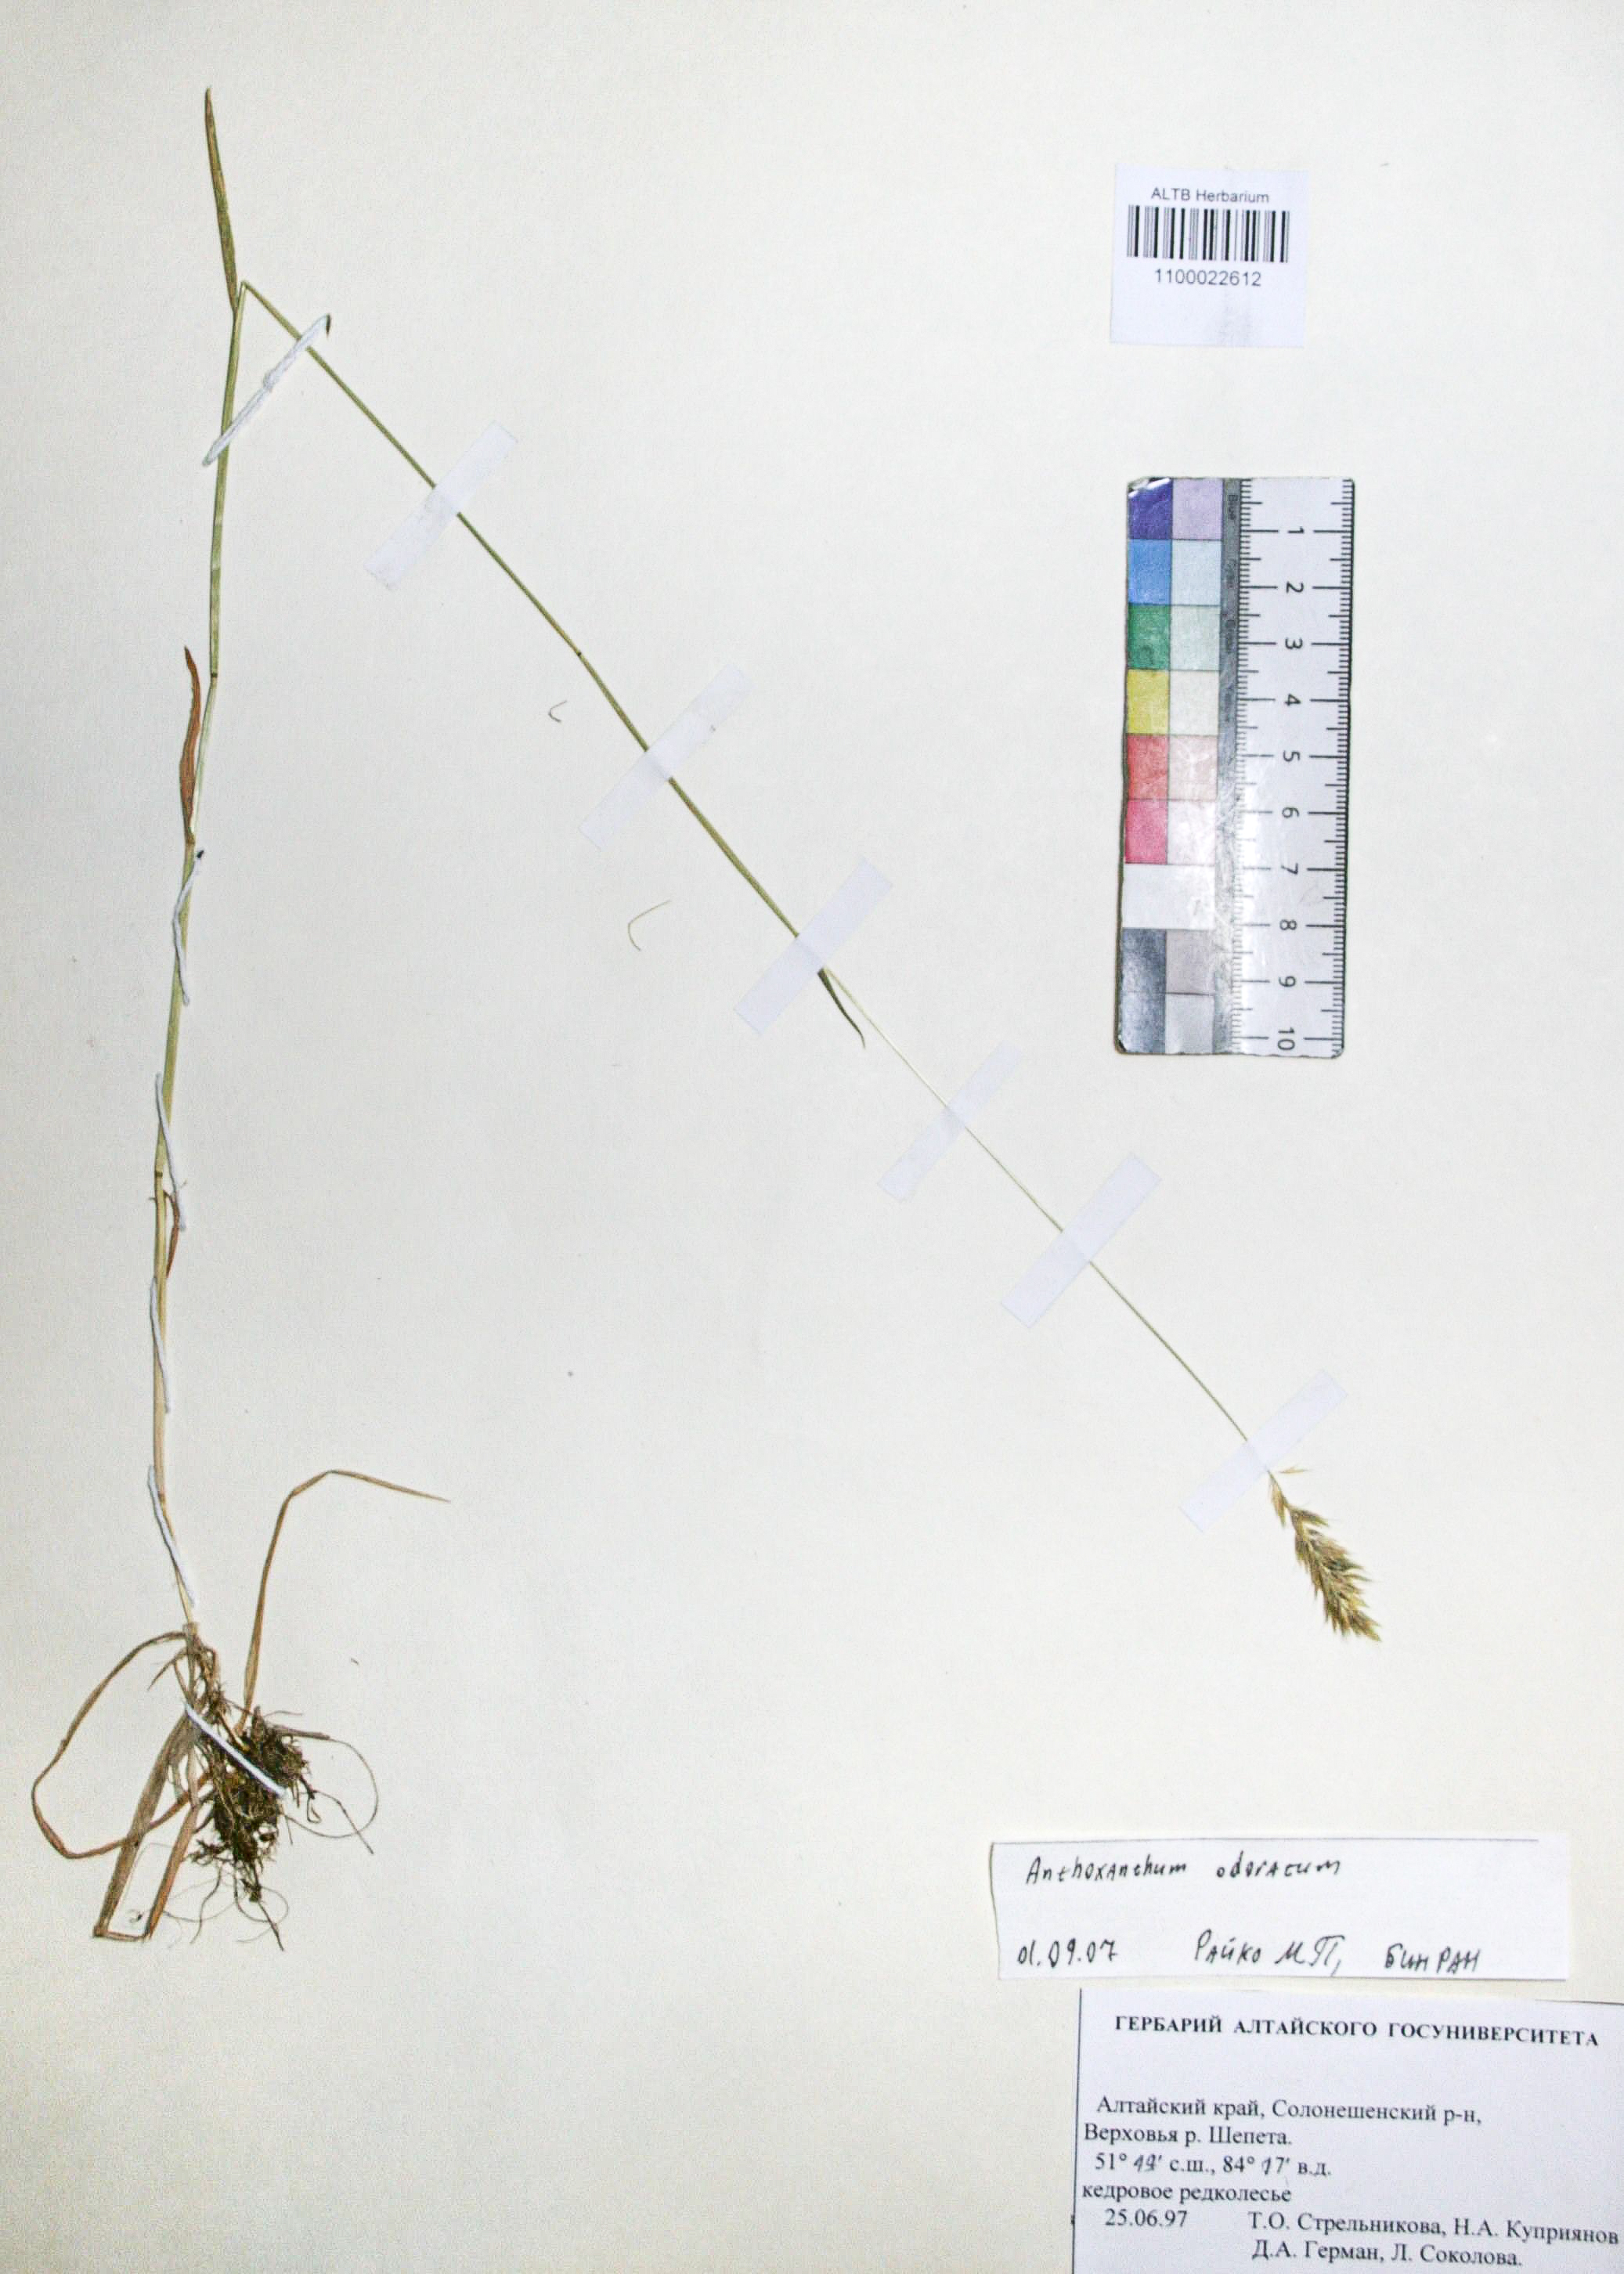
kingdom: Plantae
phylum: Tracheophyta
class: Liliopsida
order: Poales
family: Poaceae
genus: Anthoxanthum
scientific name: Anthoxanthum odoratum
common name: Sweet vernalgrass
